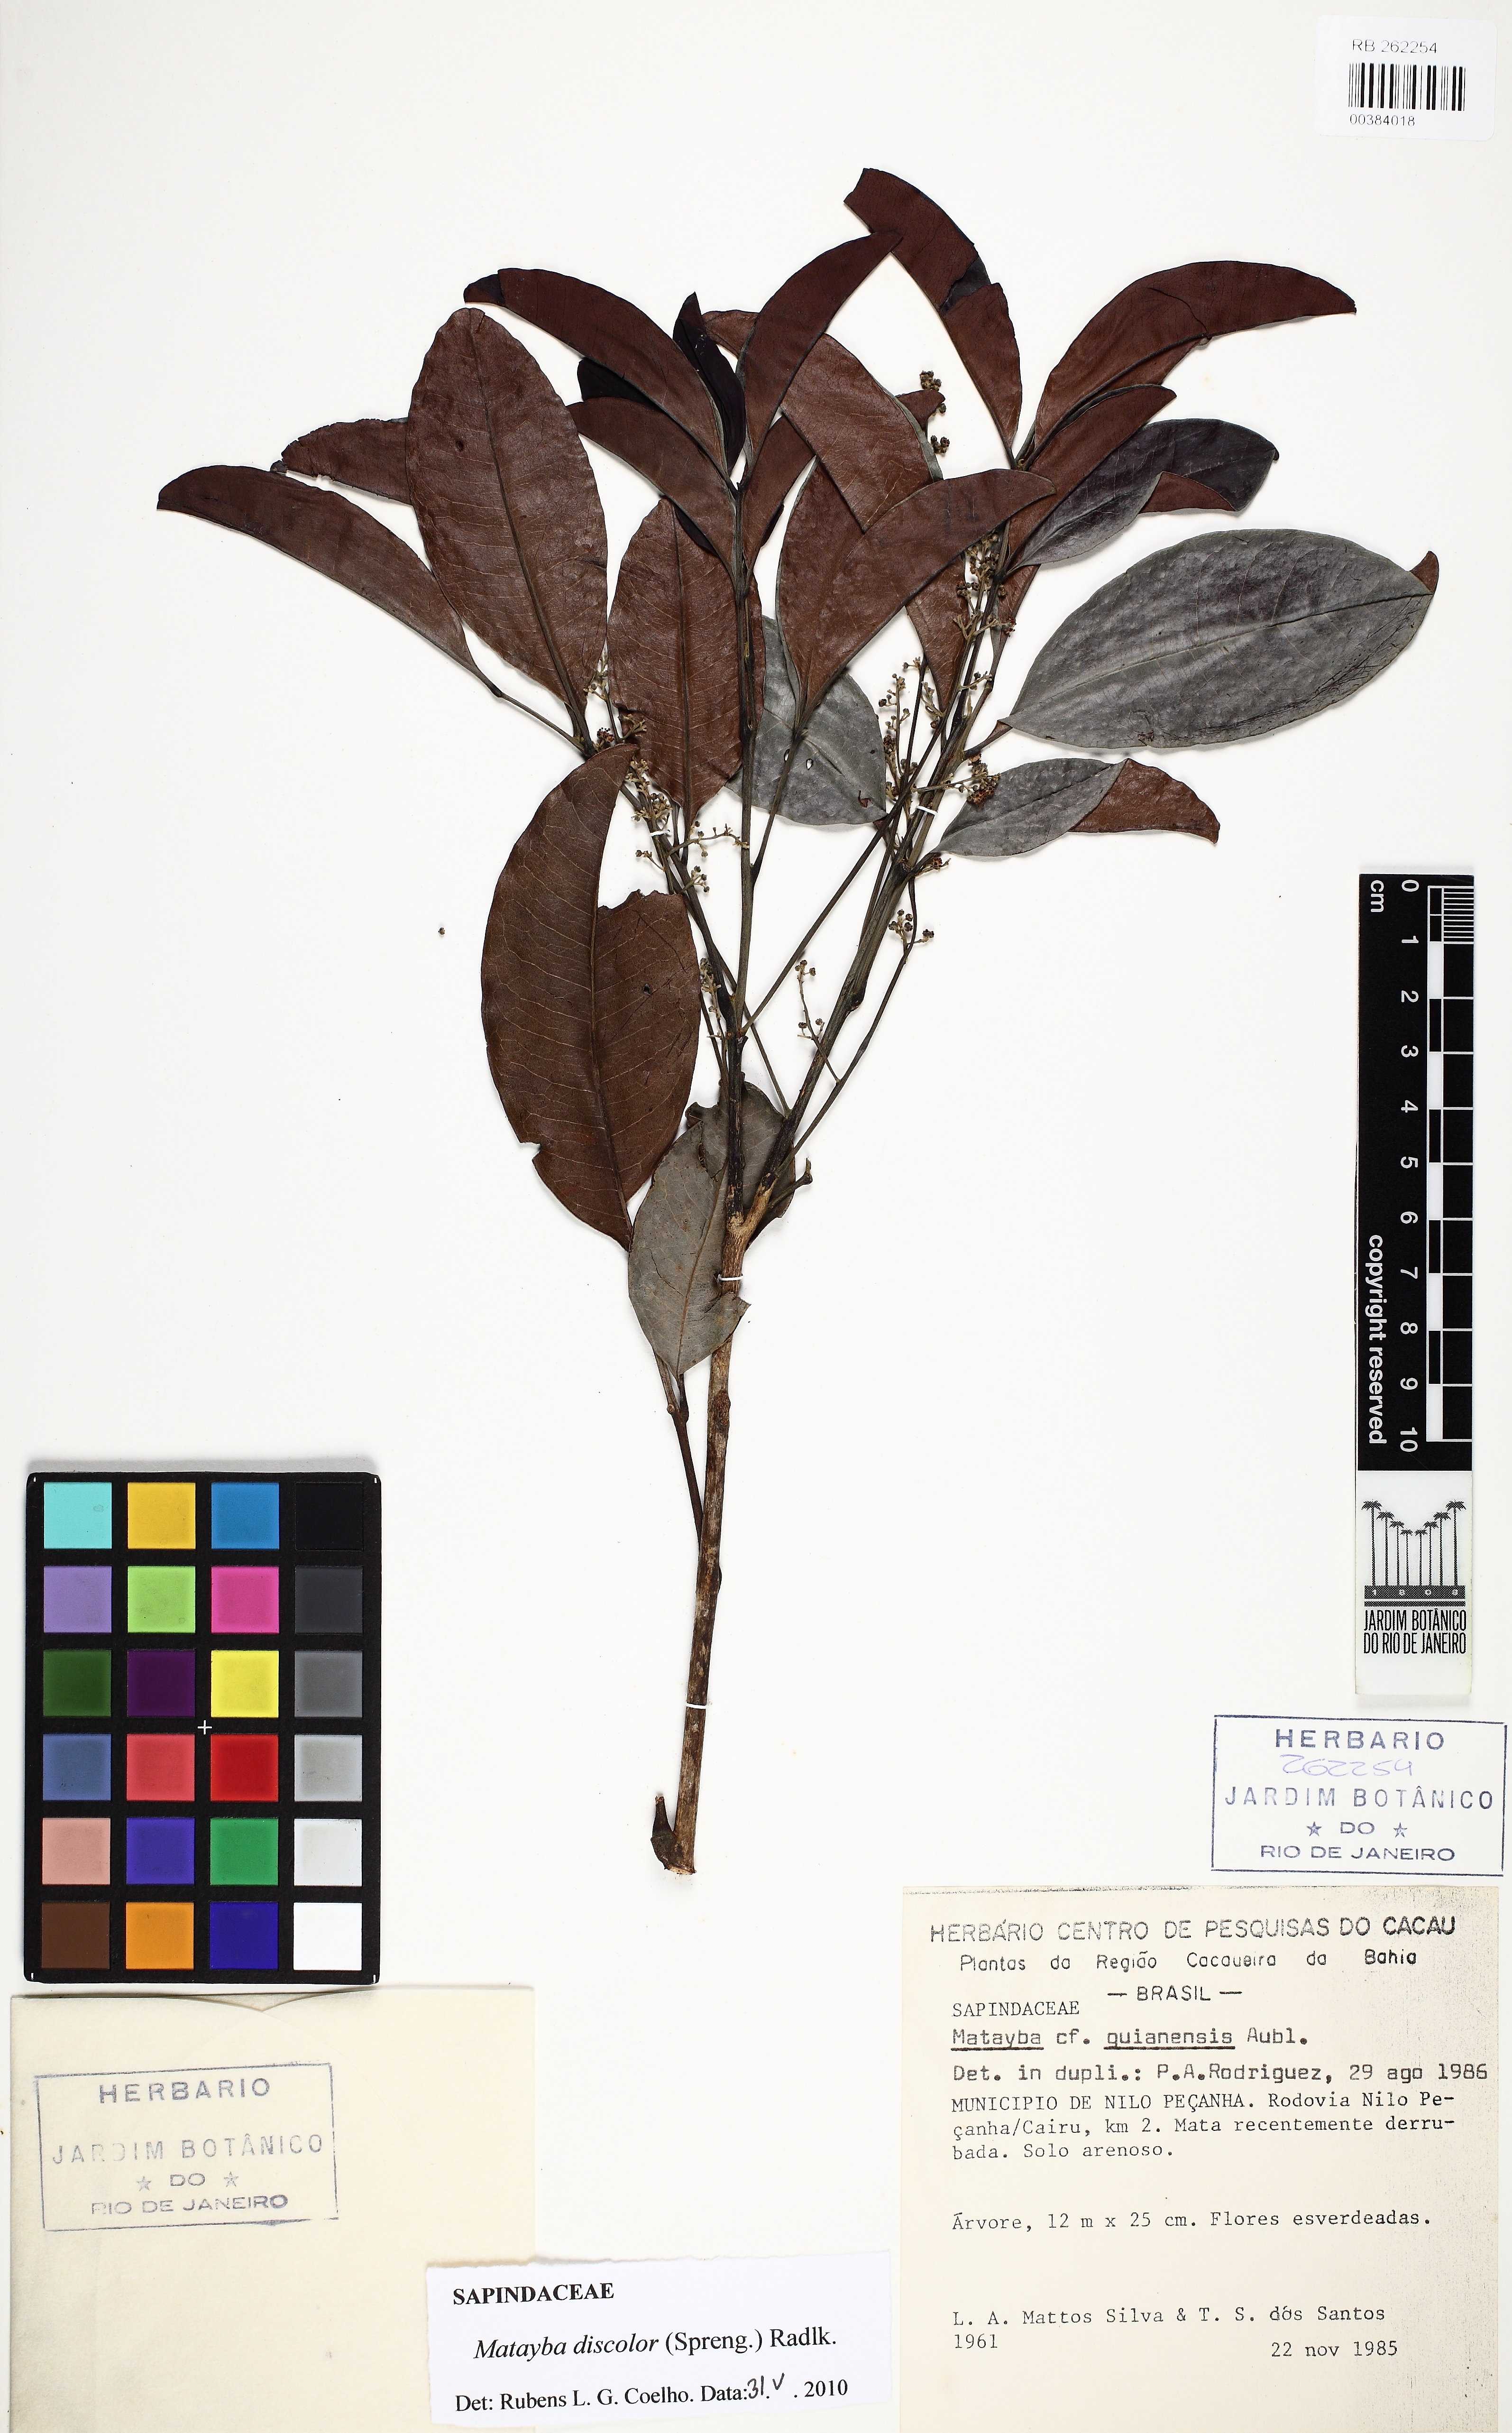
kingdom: Plantae
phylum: Tracheophyta
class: Magnoliopsida
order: Sapindales
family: Sapindaceae
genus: Matayba
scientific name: Matayba discolor
